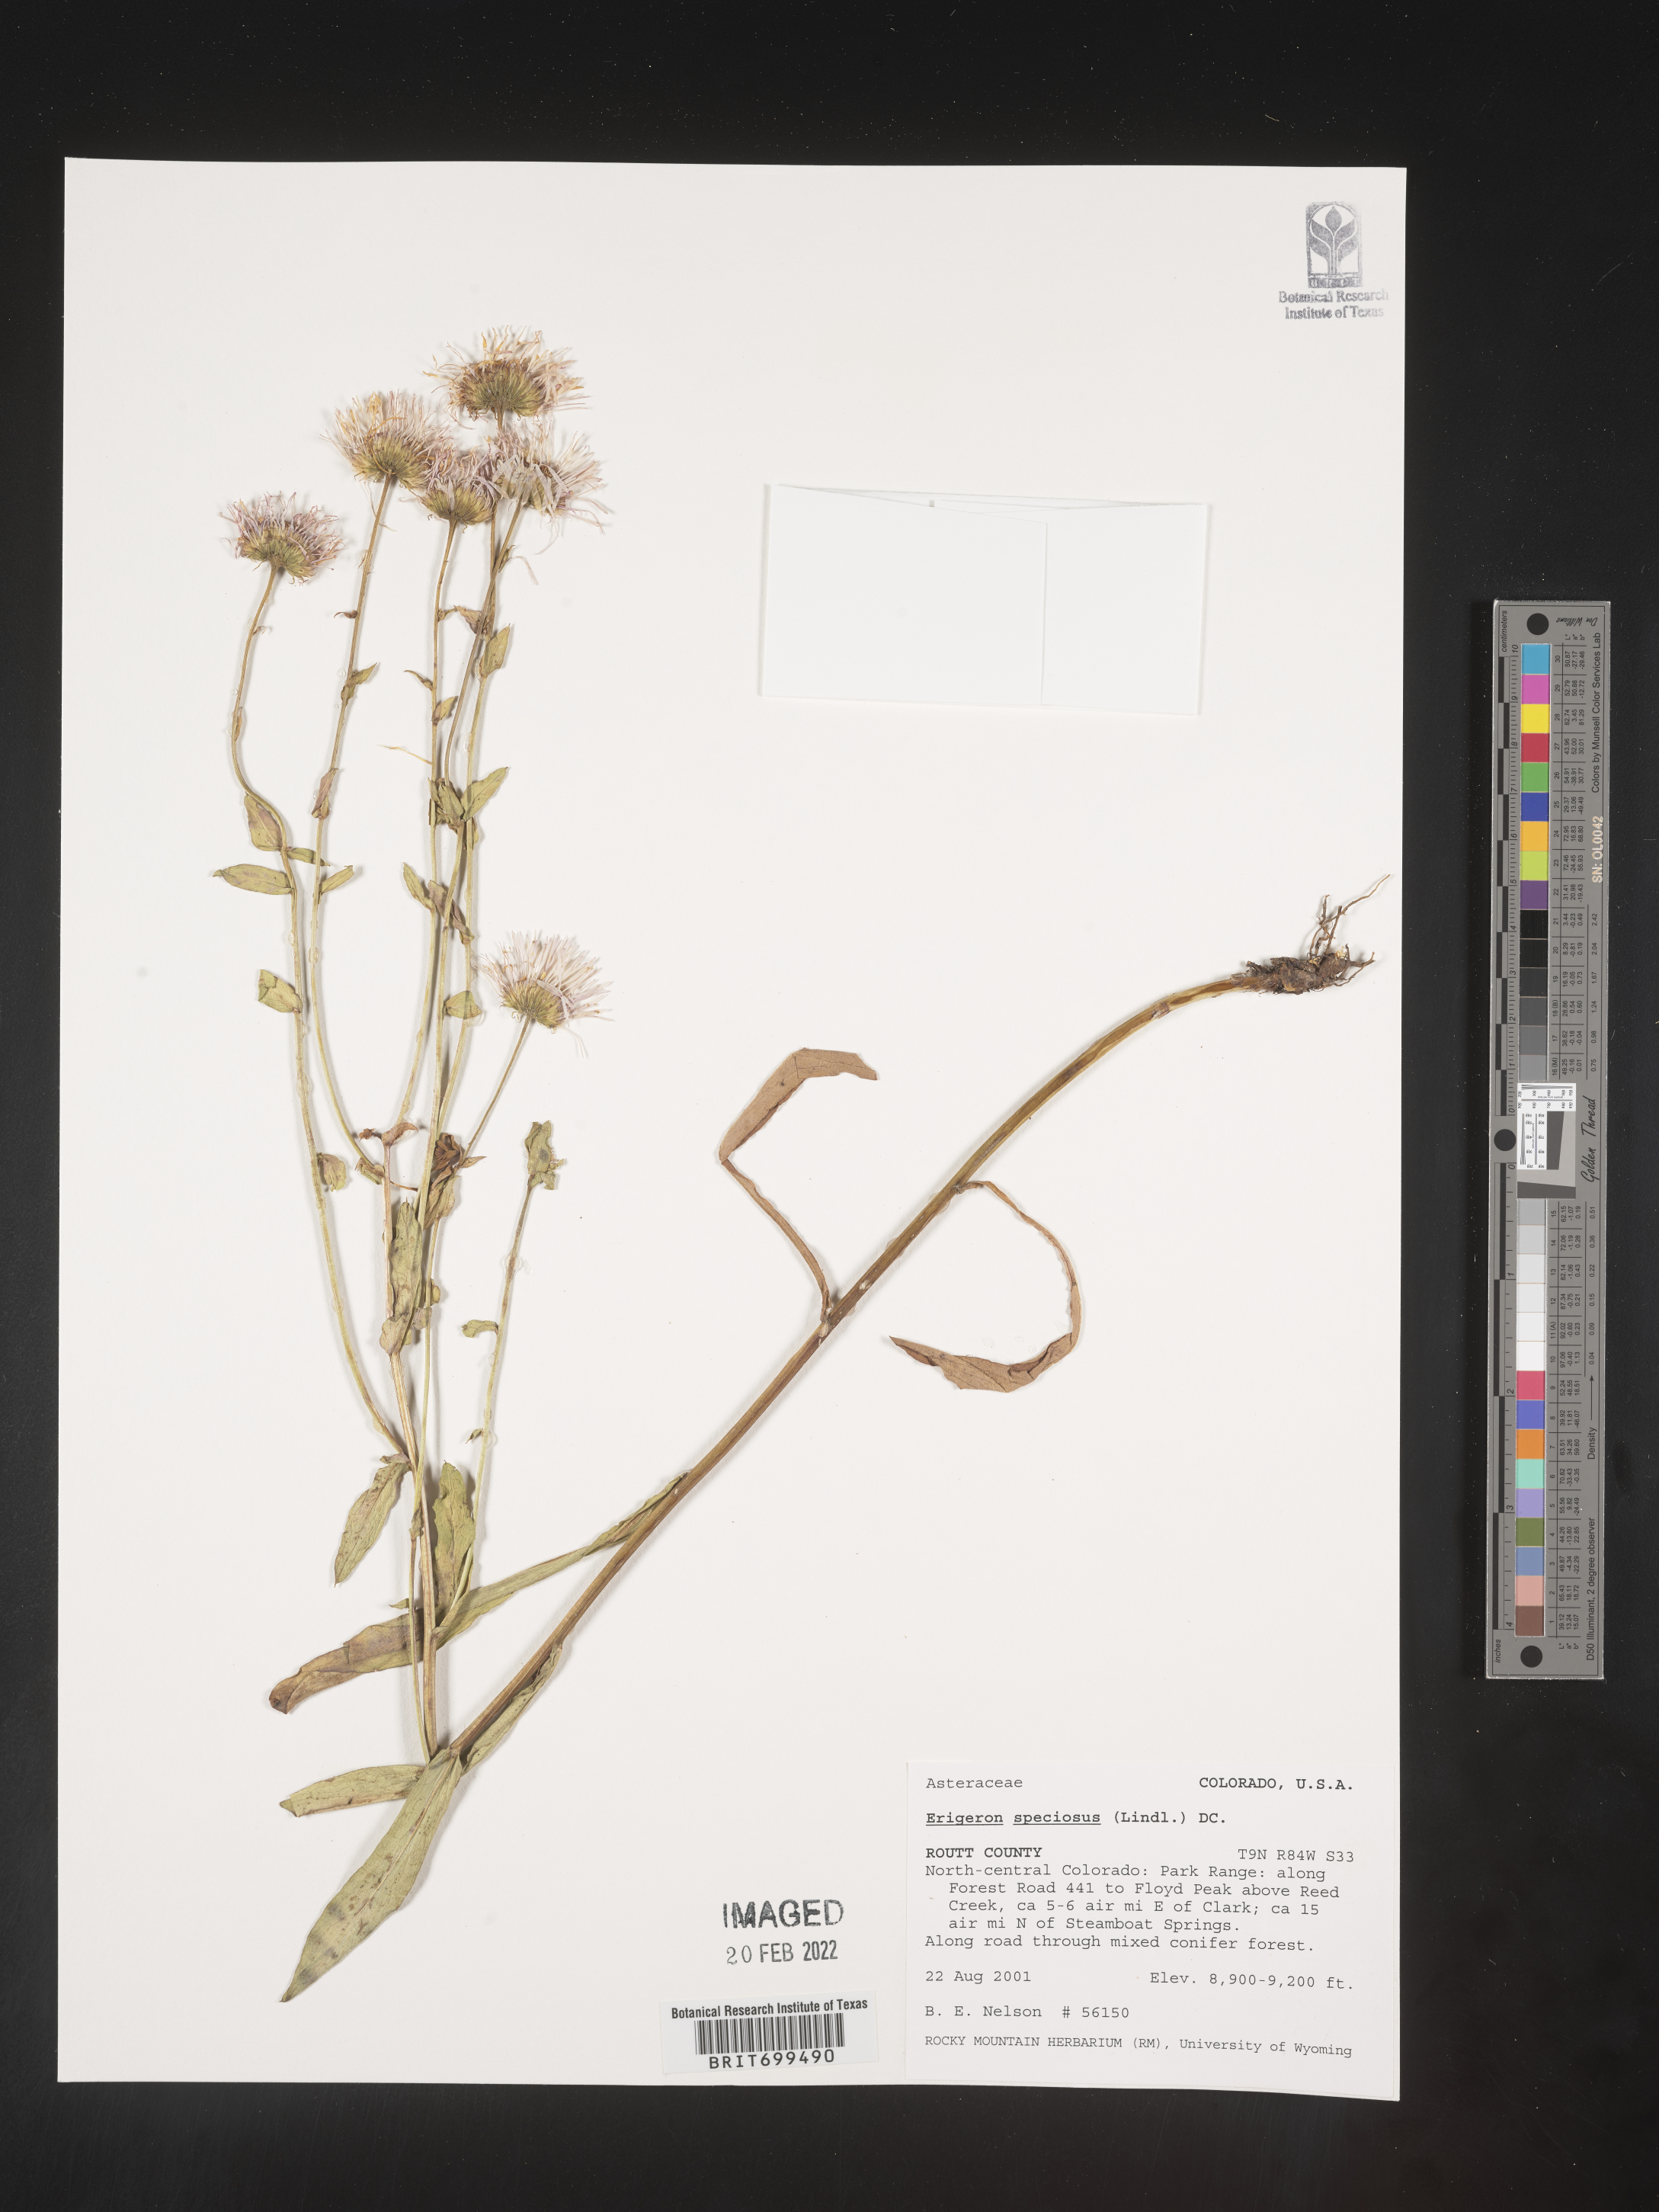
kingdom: Plantae
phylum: Tracheophyta
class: Magnoliopsida
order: Asterales
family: Asteraceae
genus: Erigeron
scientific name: Erigeron speciosus
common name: Aspen fleabane
